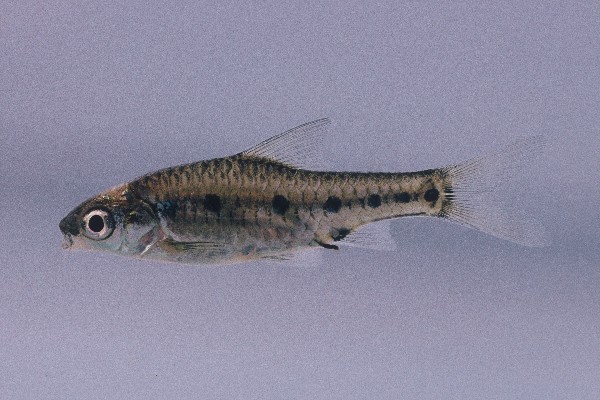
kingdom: Animalia
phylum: Chordata
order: Cypriniformes
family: Cyprinidae
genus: Enteromius
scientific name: Enteromius lineomaculatus
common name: Line-spotted barb
